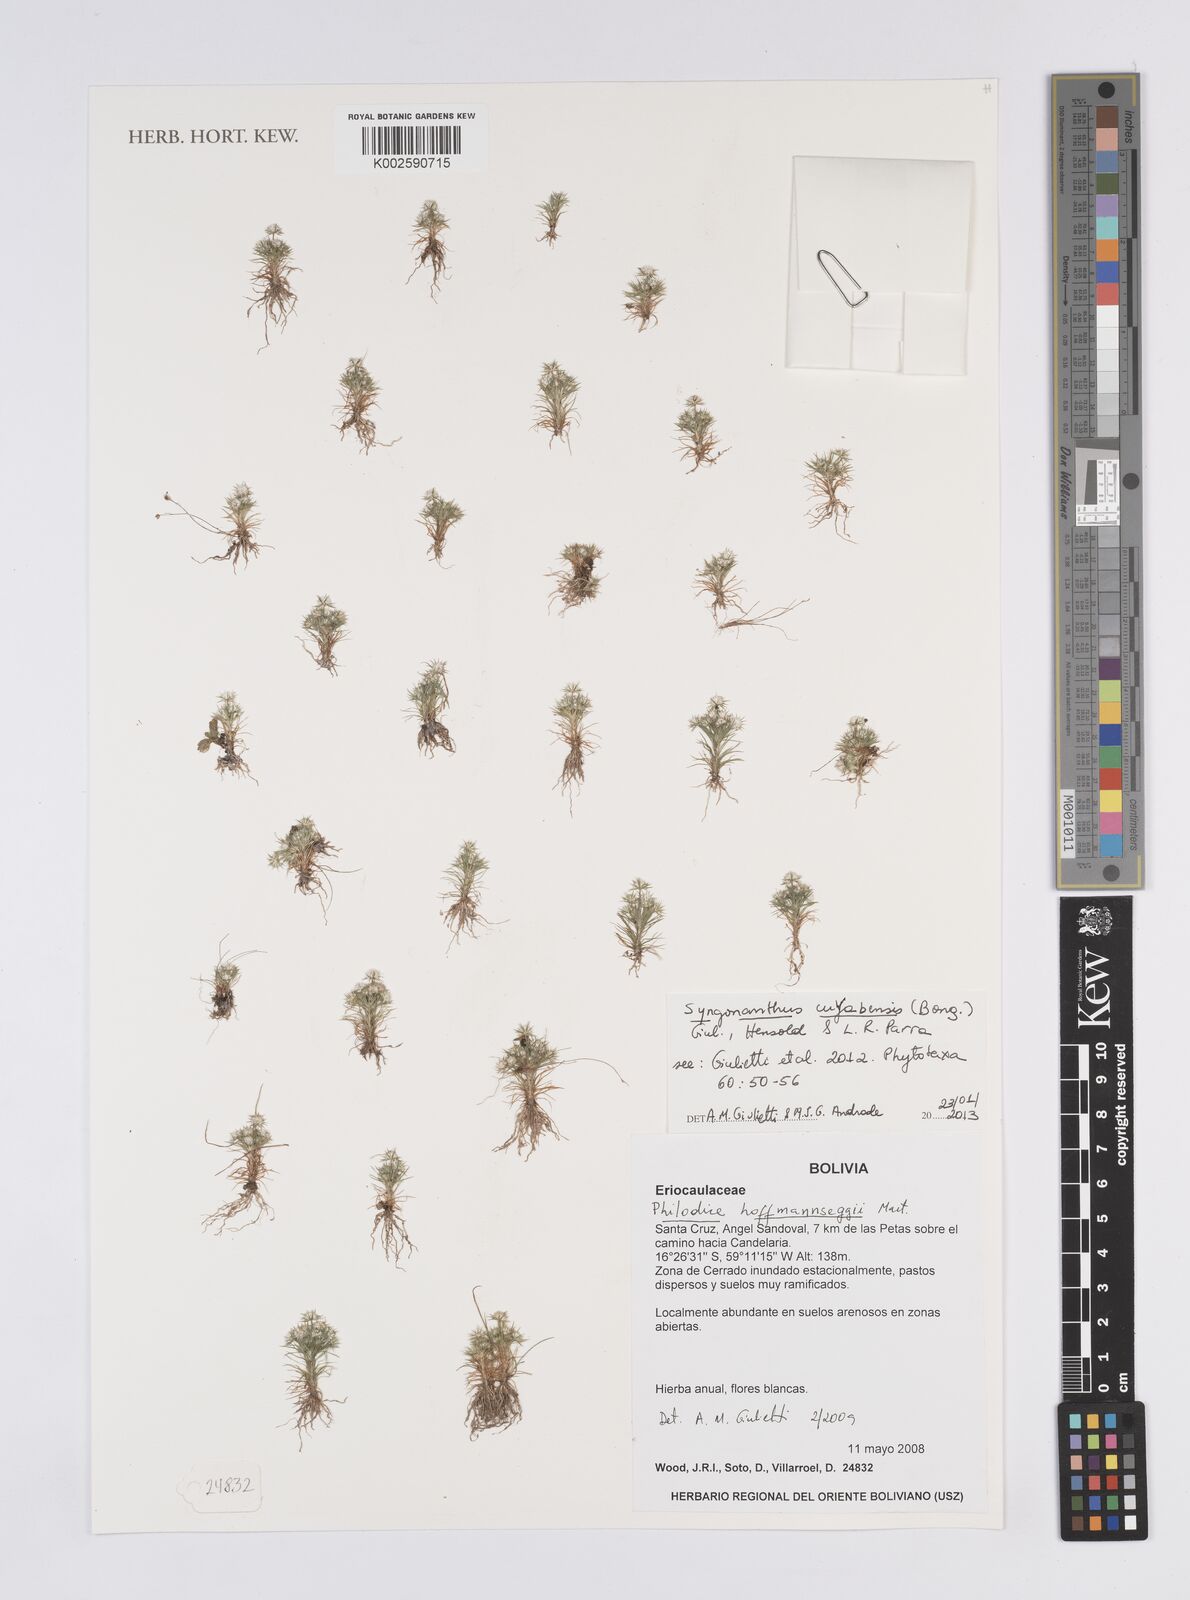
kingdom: Plantae
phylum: Tracheophyta
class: Liliopsida
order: Poales
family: Eriocaulaceae
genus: Syngonanthus
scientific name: Syngonanthus cuyabensis
